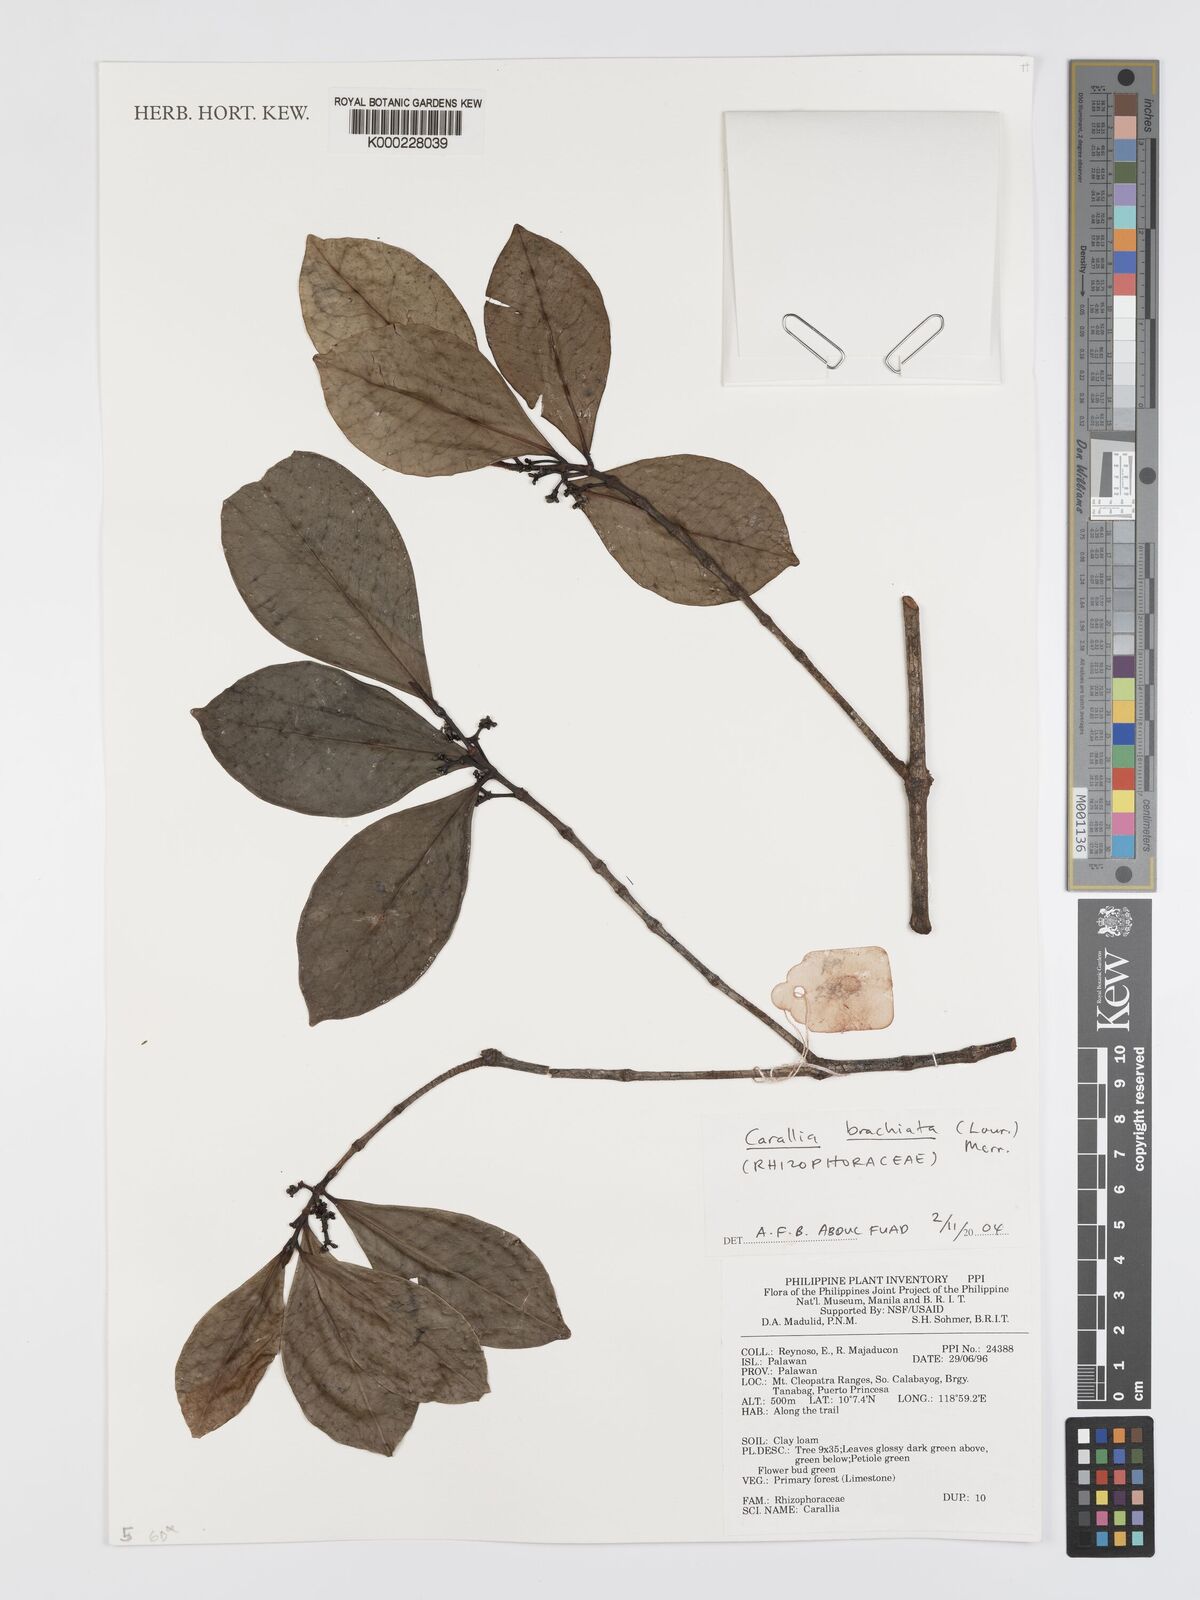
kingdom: Plantae
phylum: Tracheophyta
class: Magnoliopsida
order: Malpighiales
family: Rhizophoraceae
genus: Carallia
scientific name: Carallia brachiata
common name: Carallawood
